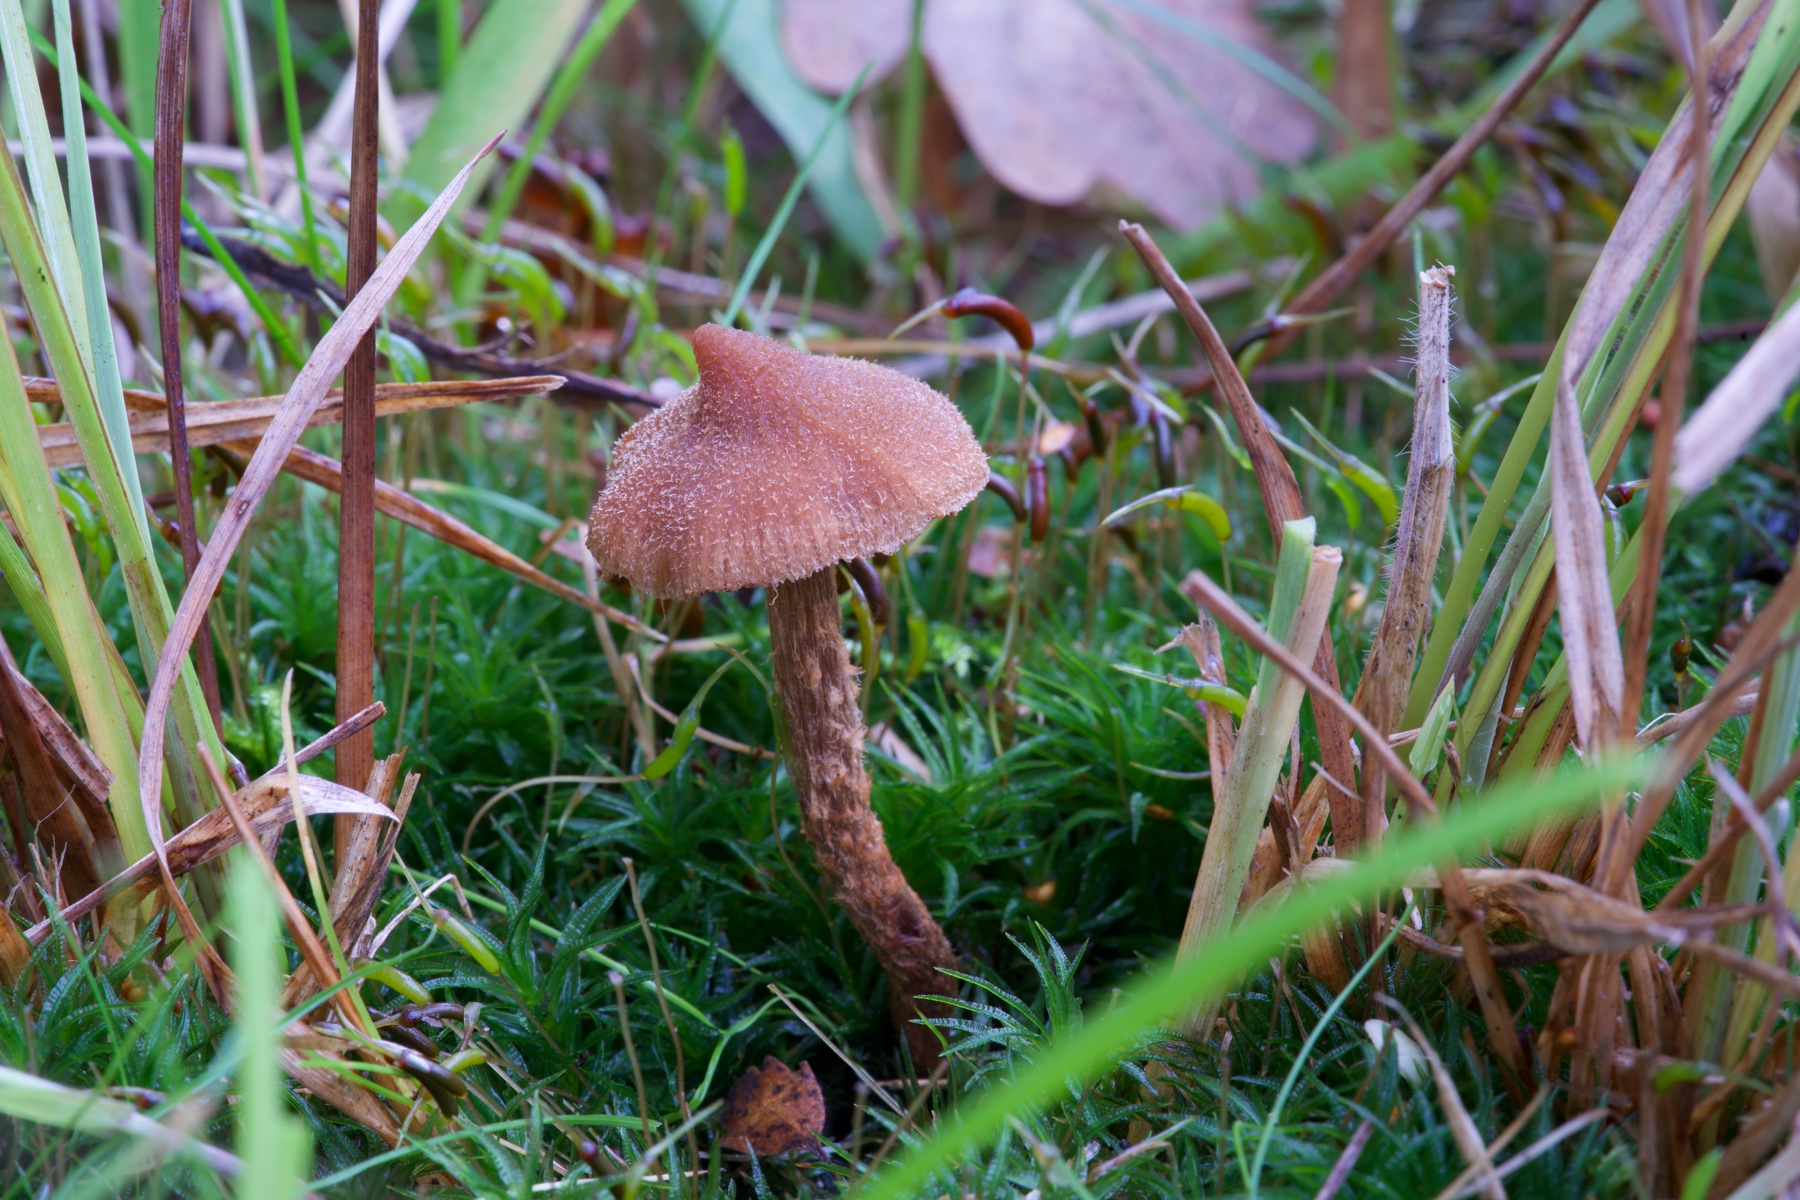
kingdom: Fungi
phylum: Basidiomycota
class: Agaricomycetes
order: Agaricales
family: Cortinariaceae
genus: Cortinarius
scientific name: Cortinarius quercoconicus
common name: agernskål-slørhat
